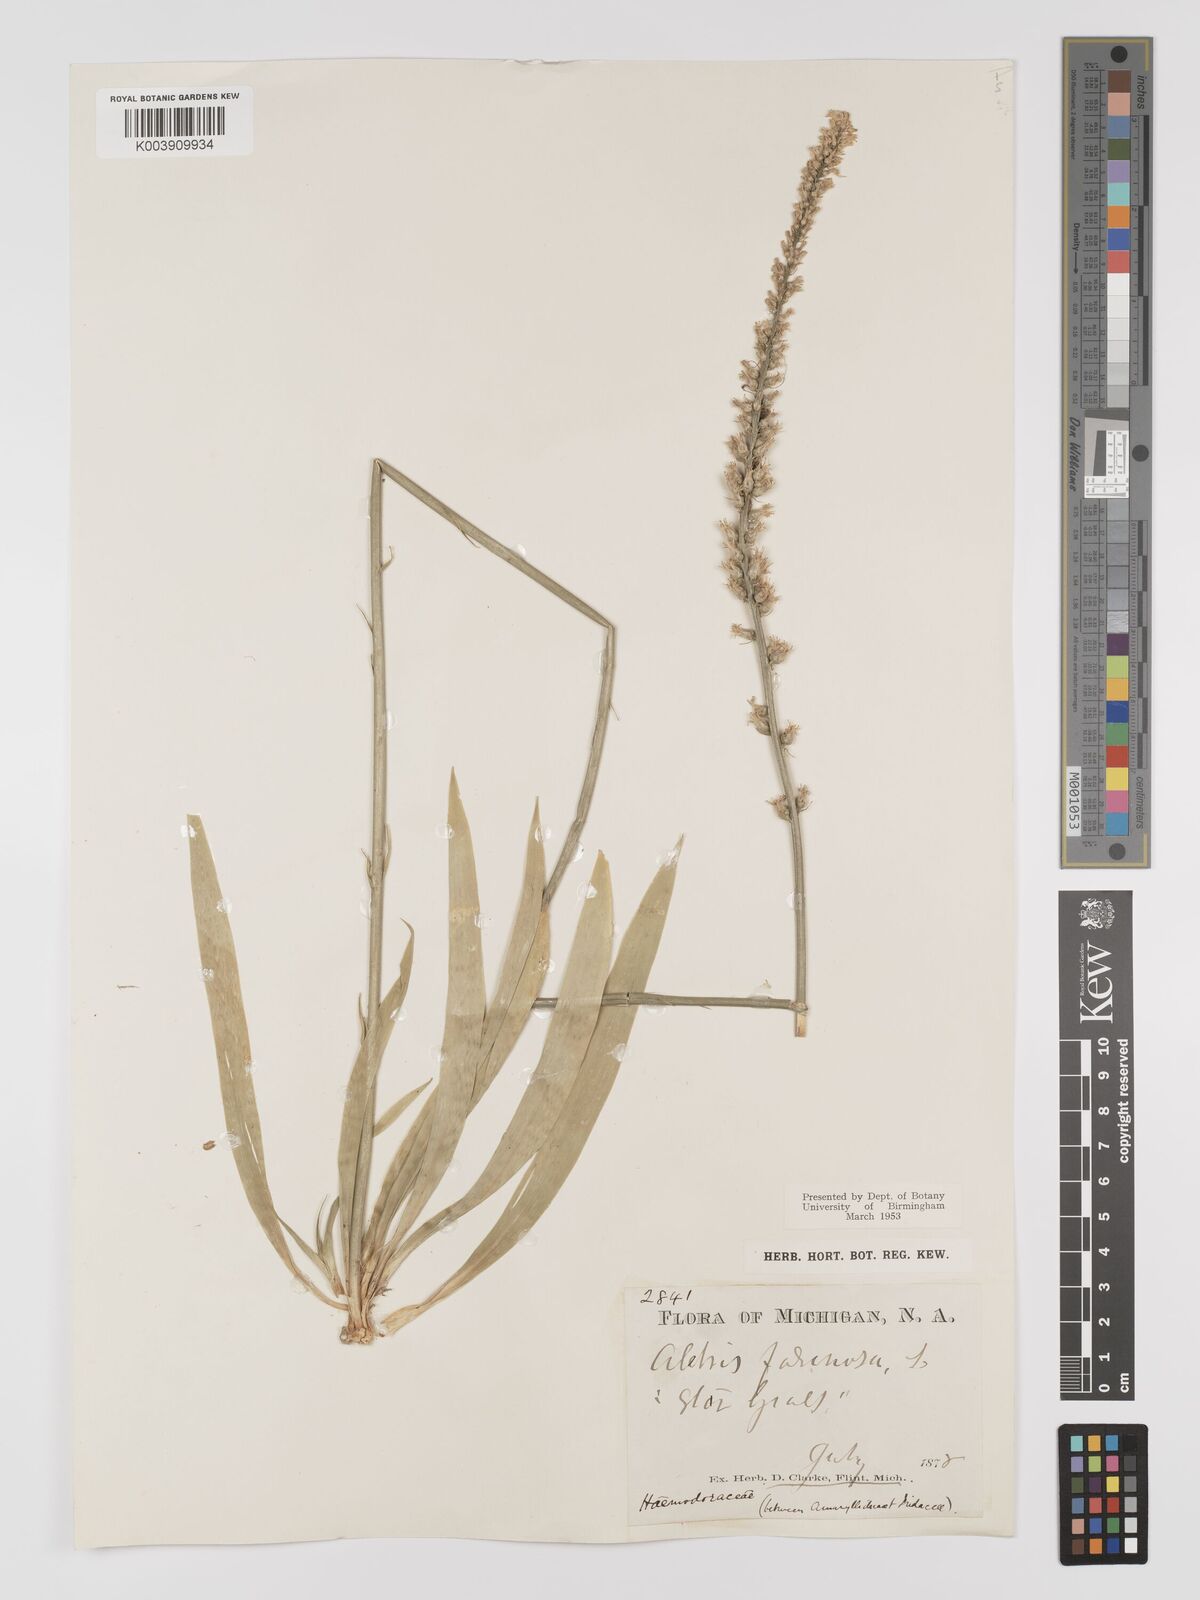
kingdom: Plantae
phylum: Tracheophyta
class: Liliopsida
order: Dioscoreales
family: Nartheciaceae
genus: Aletris
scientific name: Aletris farinosa
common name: Colicroot
